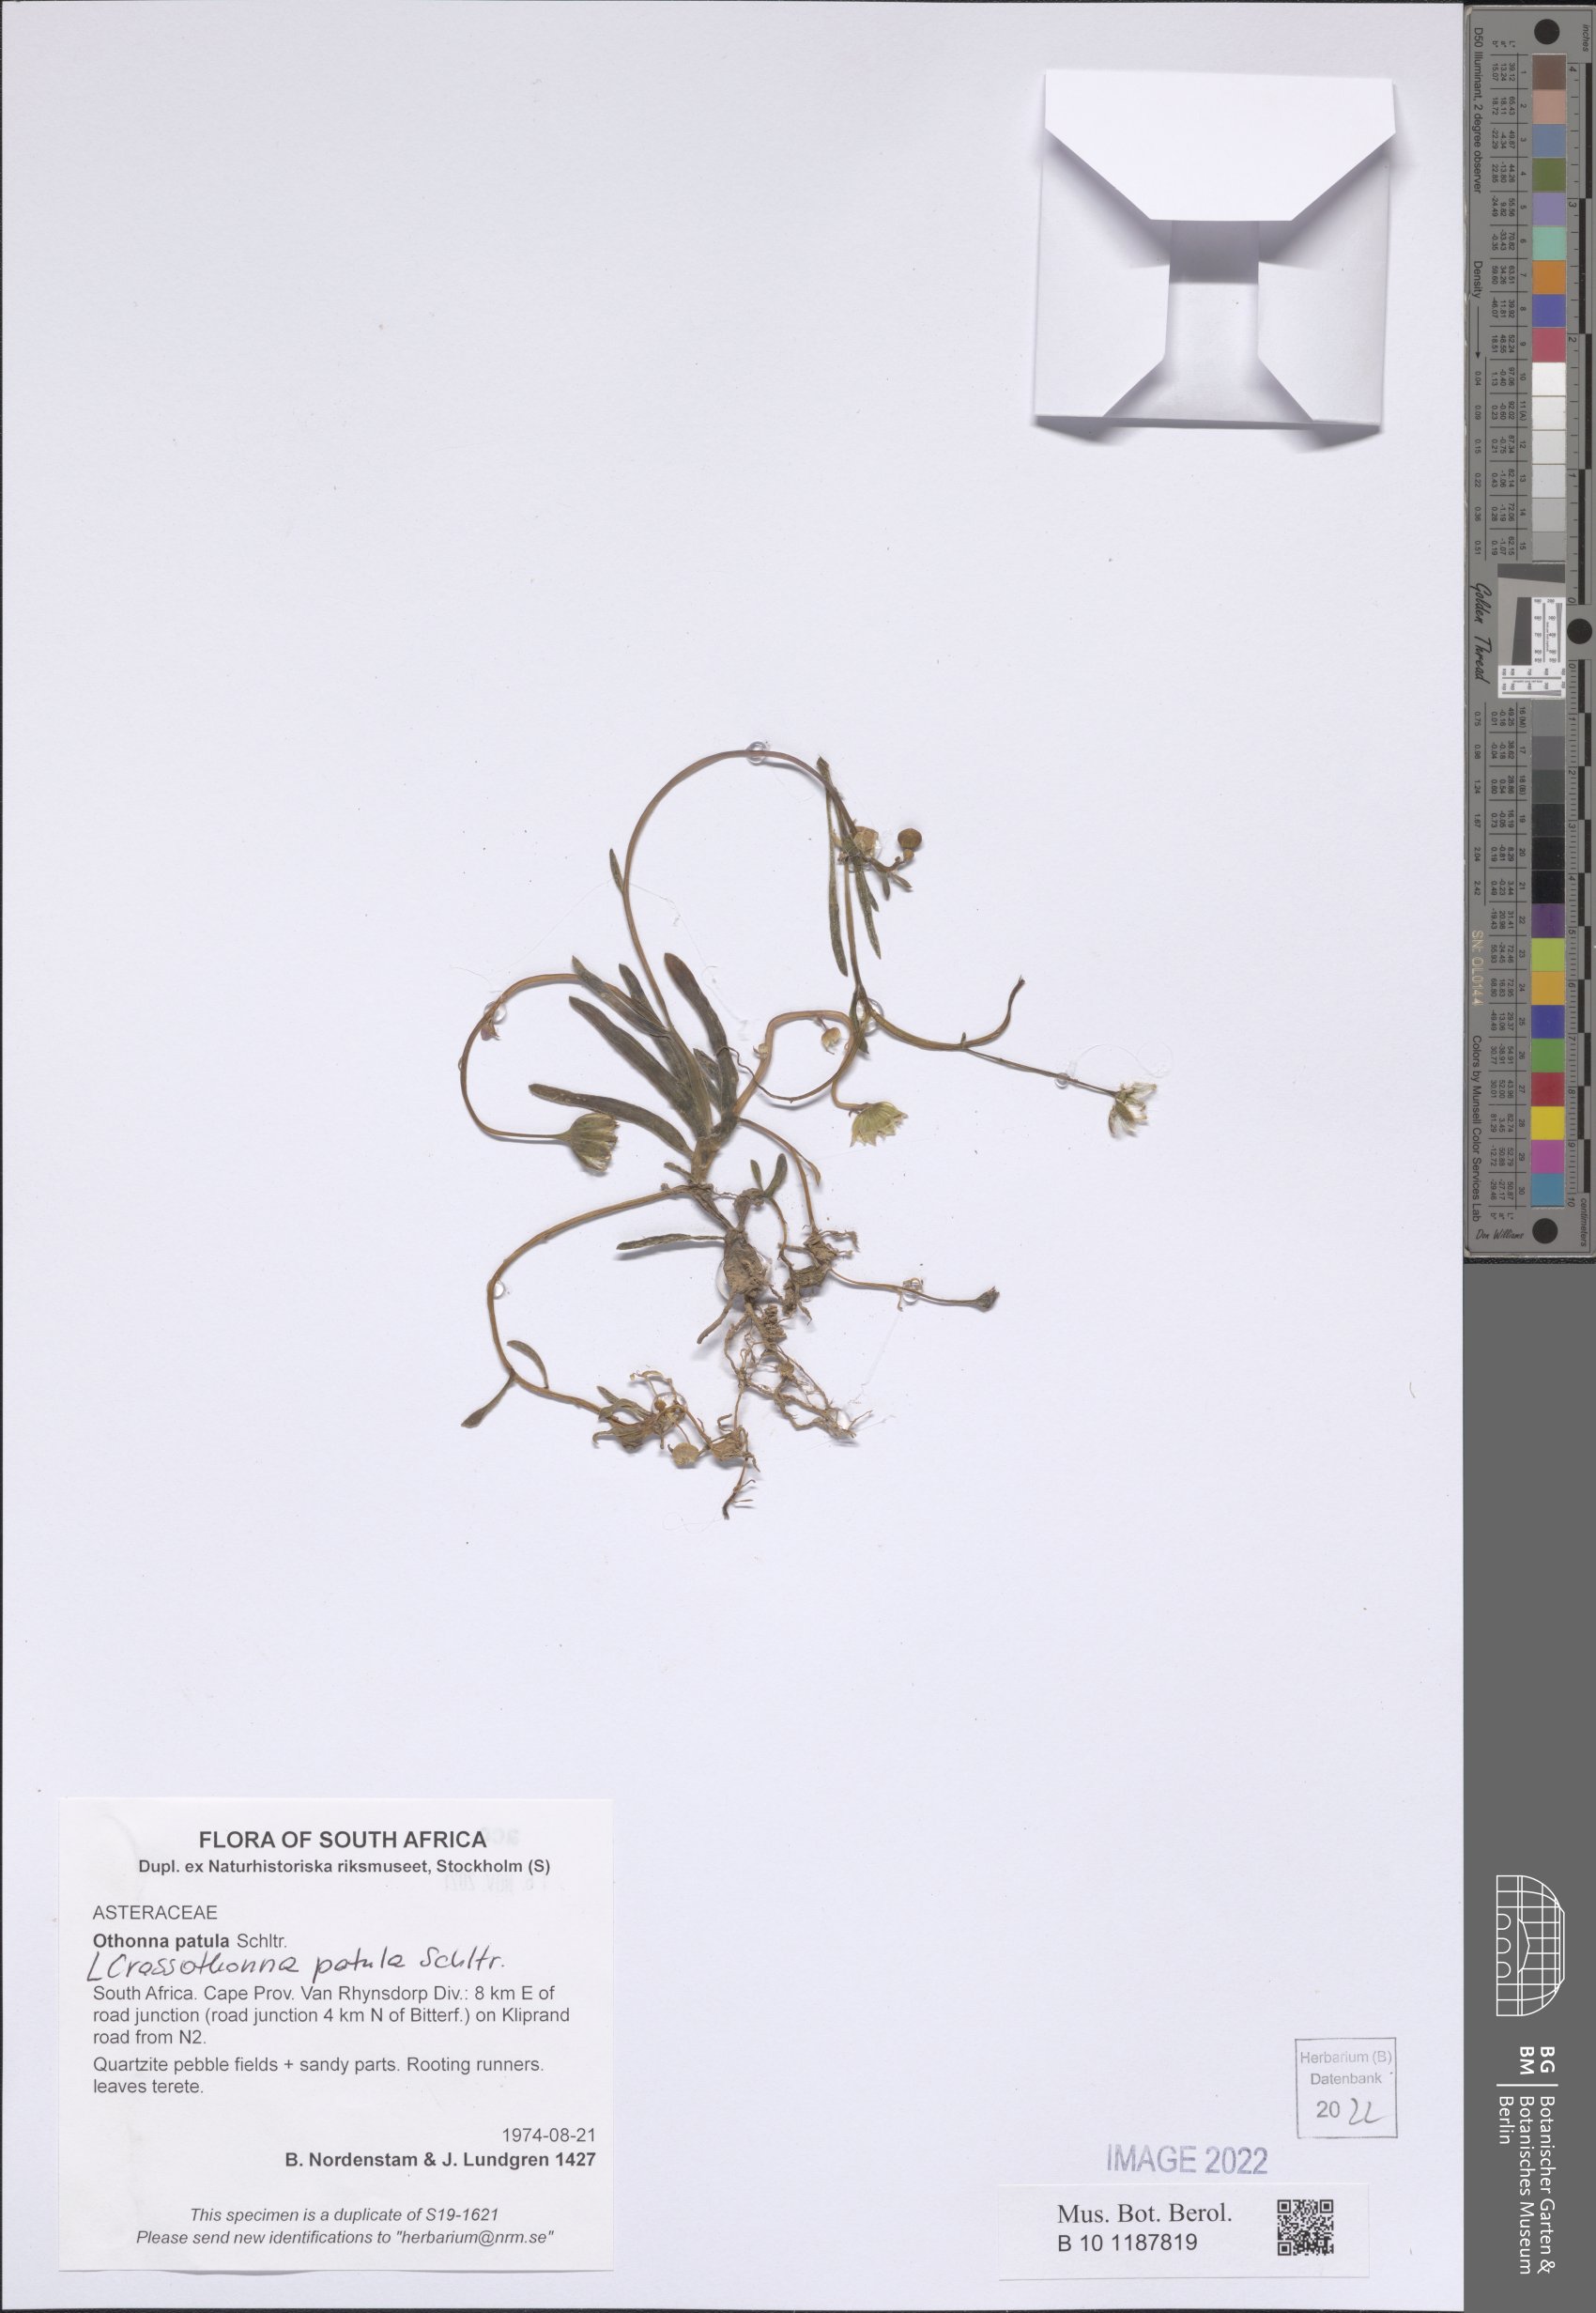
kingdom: Plantae
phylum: Tracheophyta
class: Magnoliopsida
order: Asterales
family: Asteraceae
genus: Crassothonna
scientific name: Crassothonna patula
